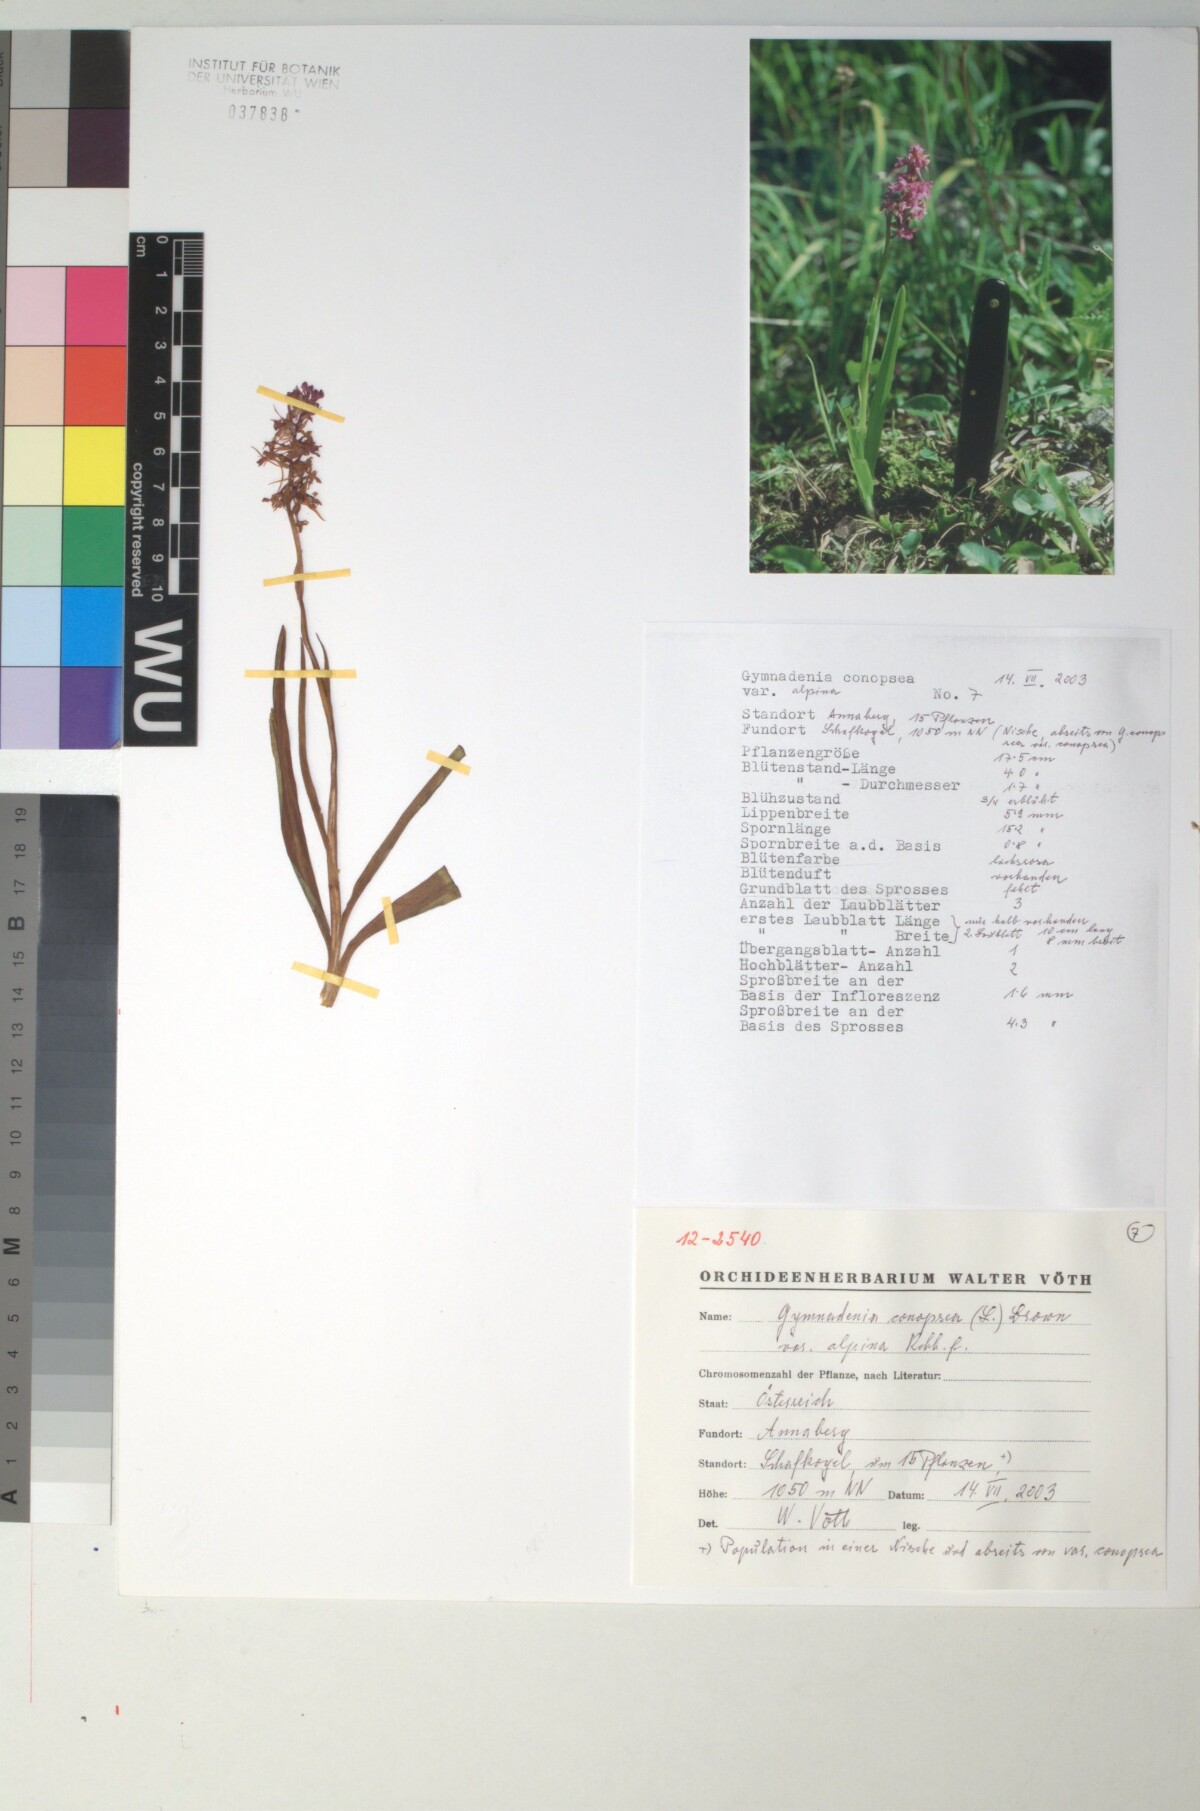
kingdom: Plantae
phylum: Tracheophyta
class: Liliopsida
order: Asparagales
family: Orchidaceae
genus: Gymnadenia
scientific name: Gymnadenia conopsea
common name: Fragrant orchid
